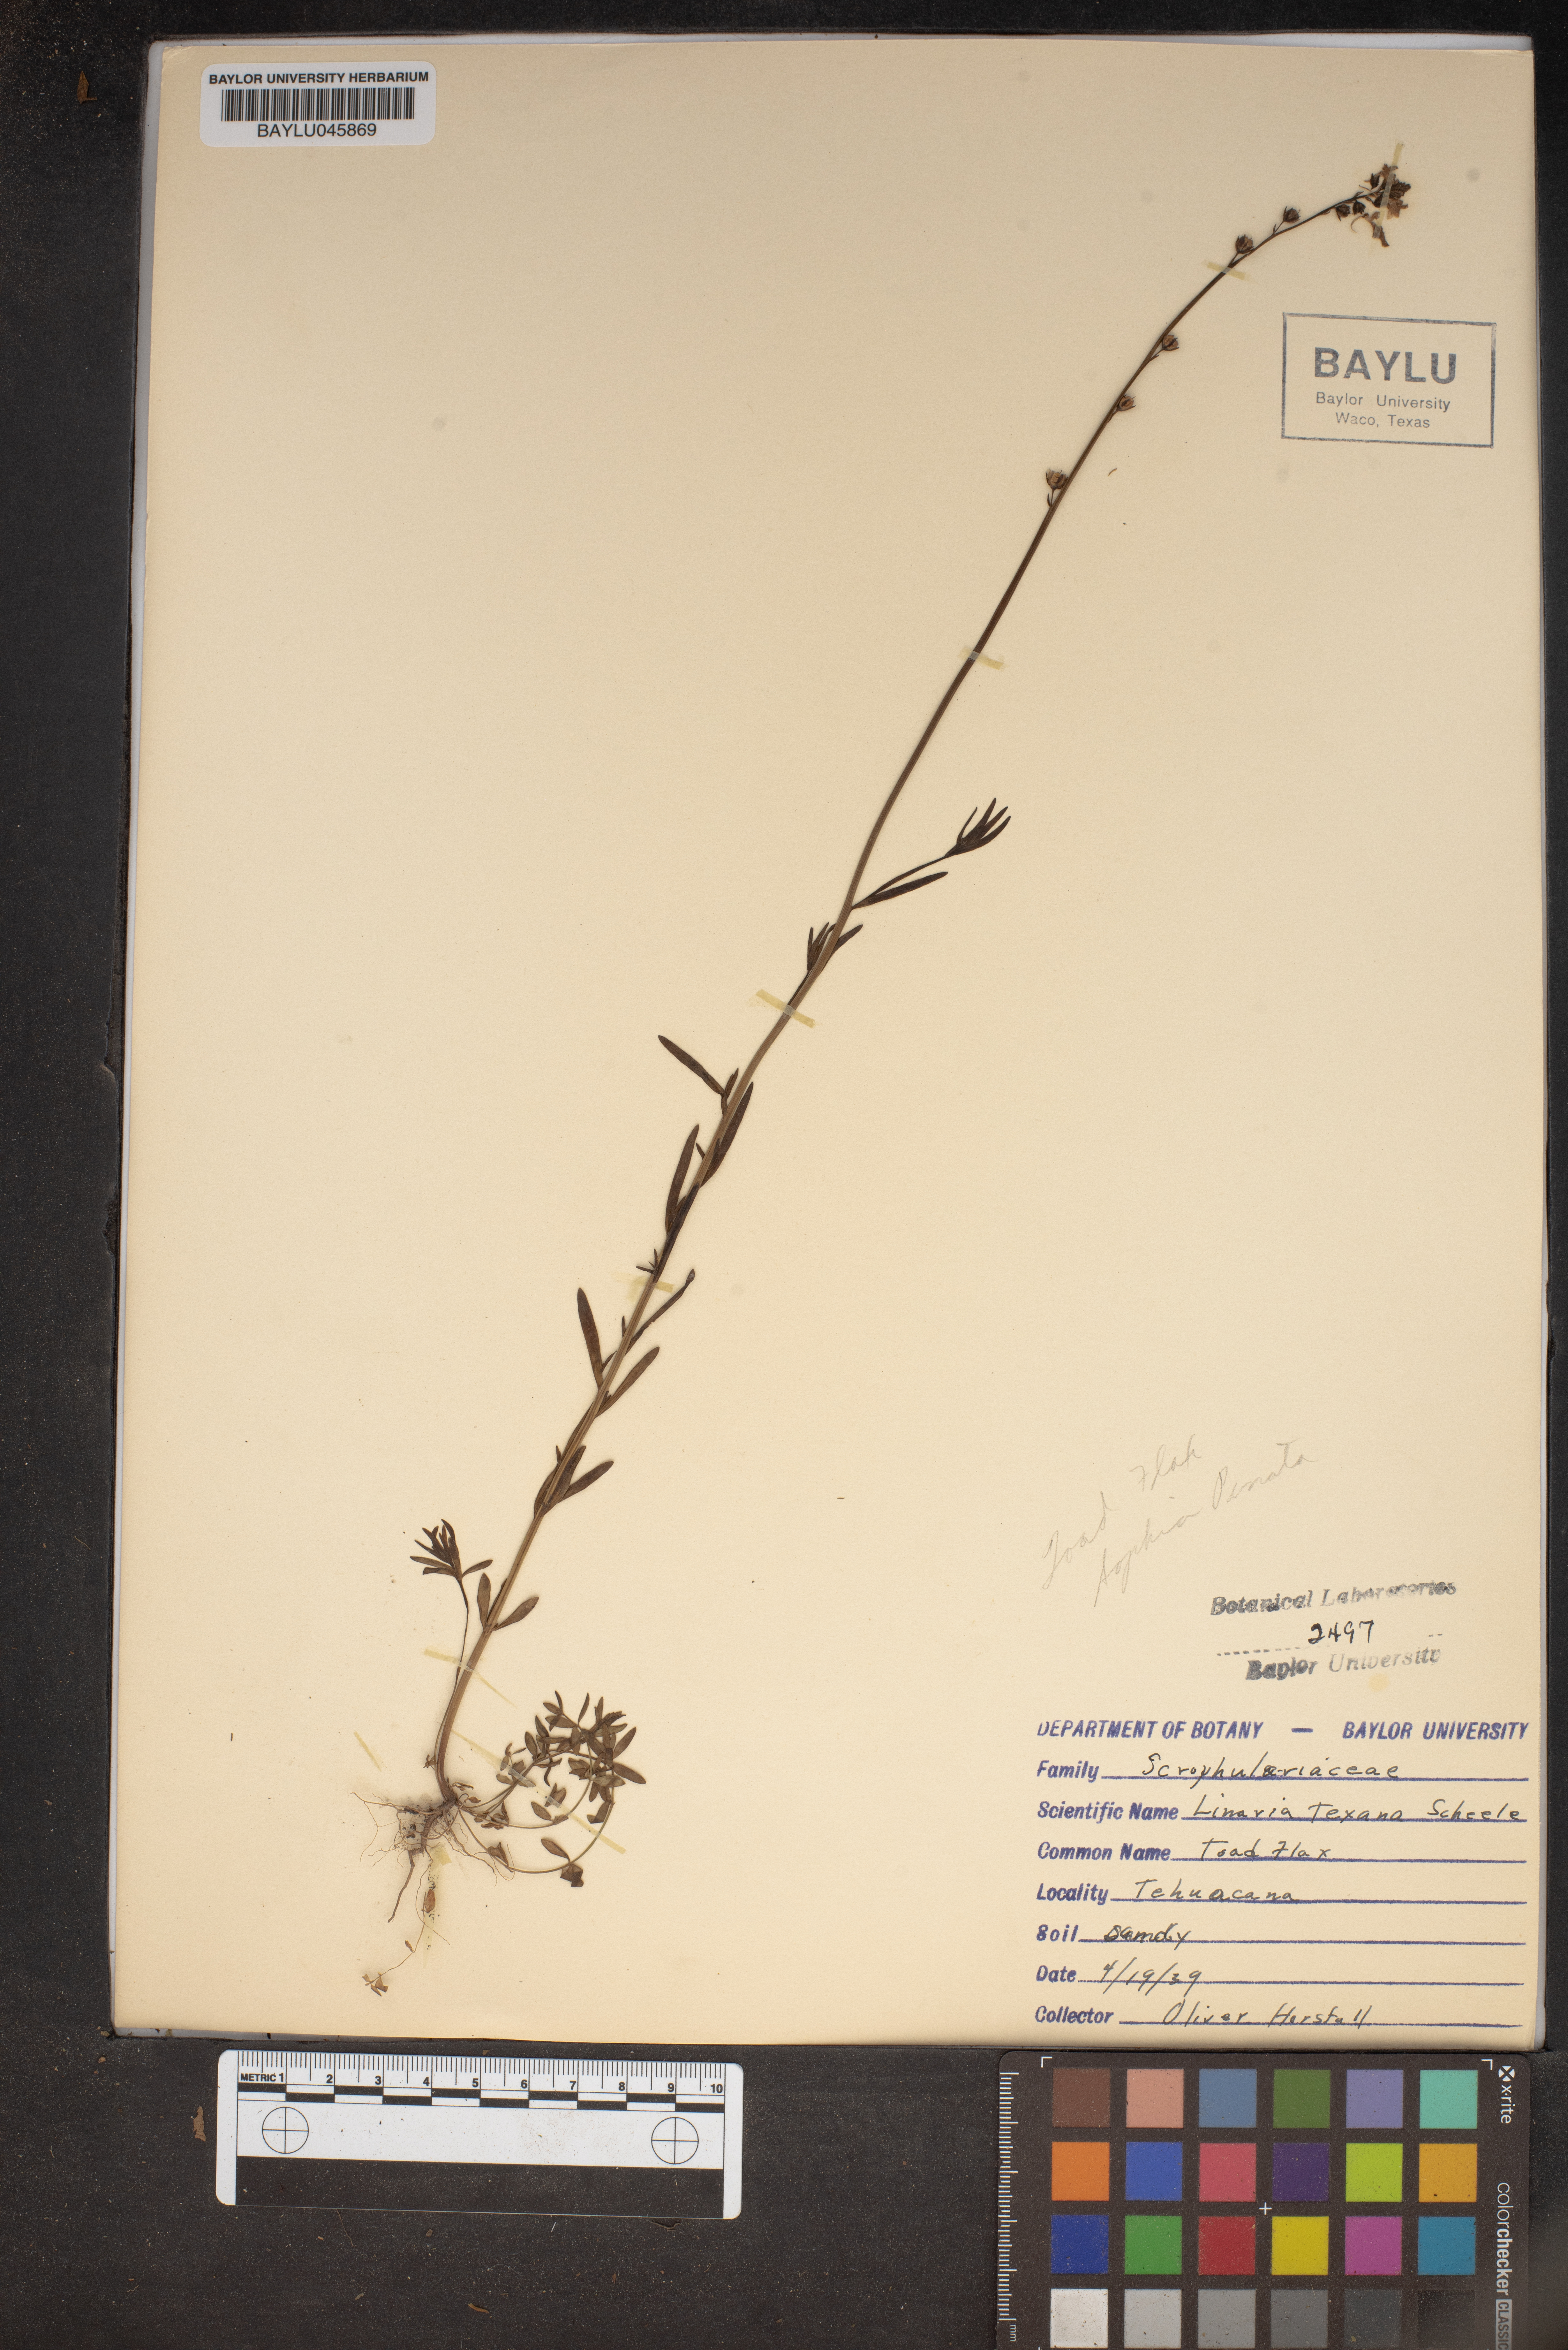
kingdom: Plantae
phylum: Tracheophyta
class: Magnoliopsida
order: Lamiales
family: Plantaginaceae
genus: Nuttallanthus
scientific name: Nuttallanthus texanus
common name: Texas toadflax
